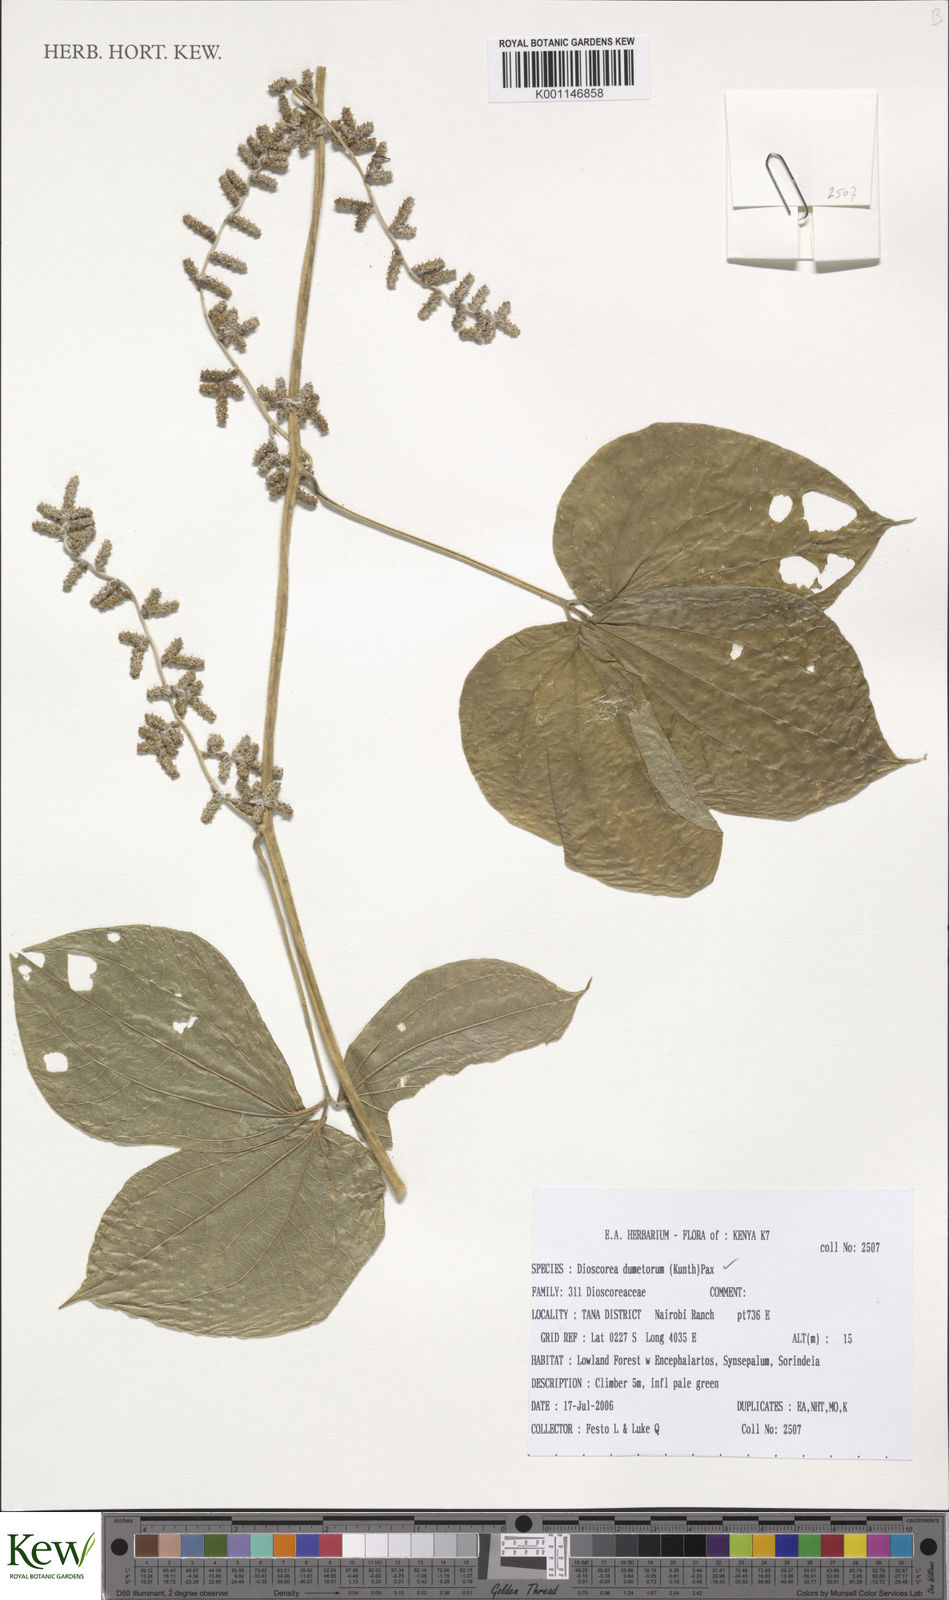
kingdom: Plantae
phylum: Tracheophyta
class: Liliopsida
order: Dioscoreales
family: Dioscoreaceae
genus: Dioscorea
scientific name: Dioscorea dumetorum
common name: African bitter yam
